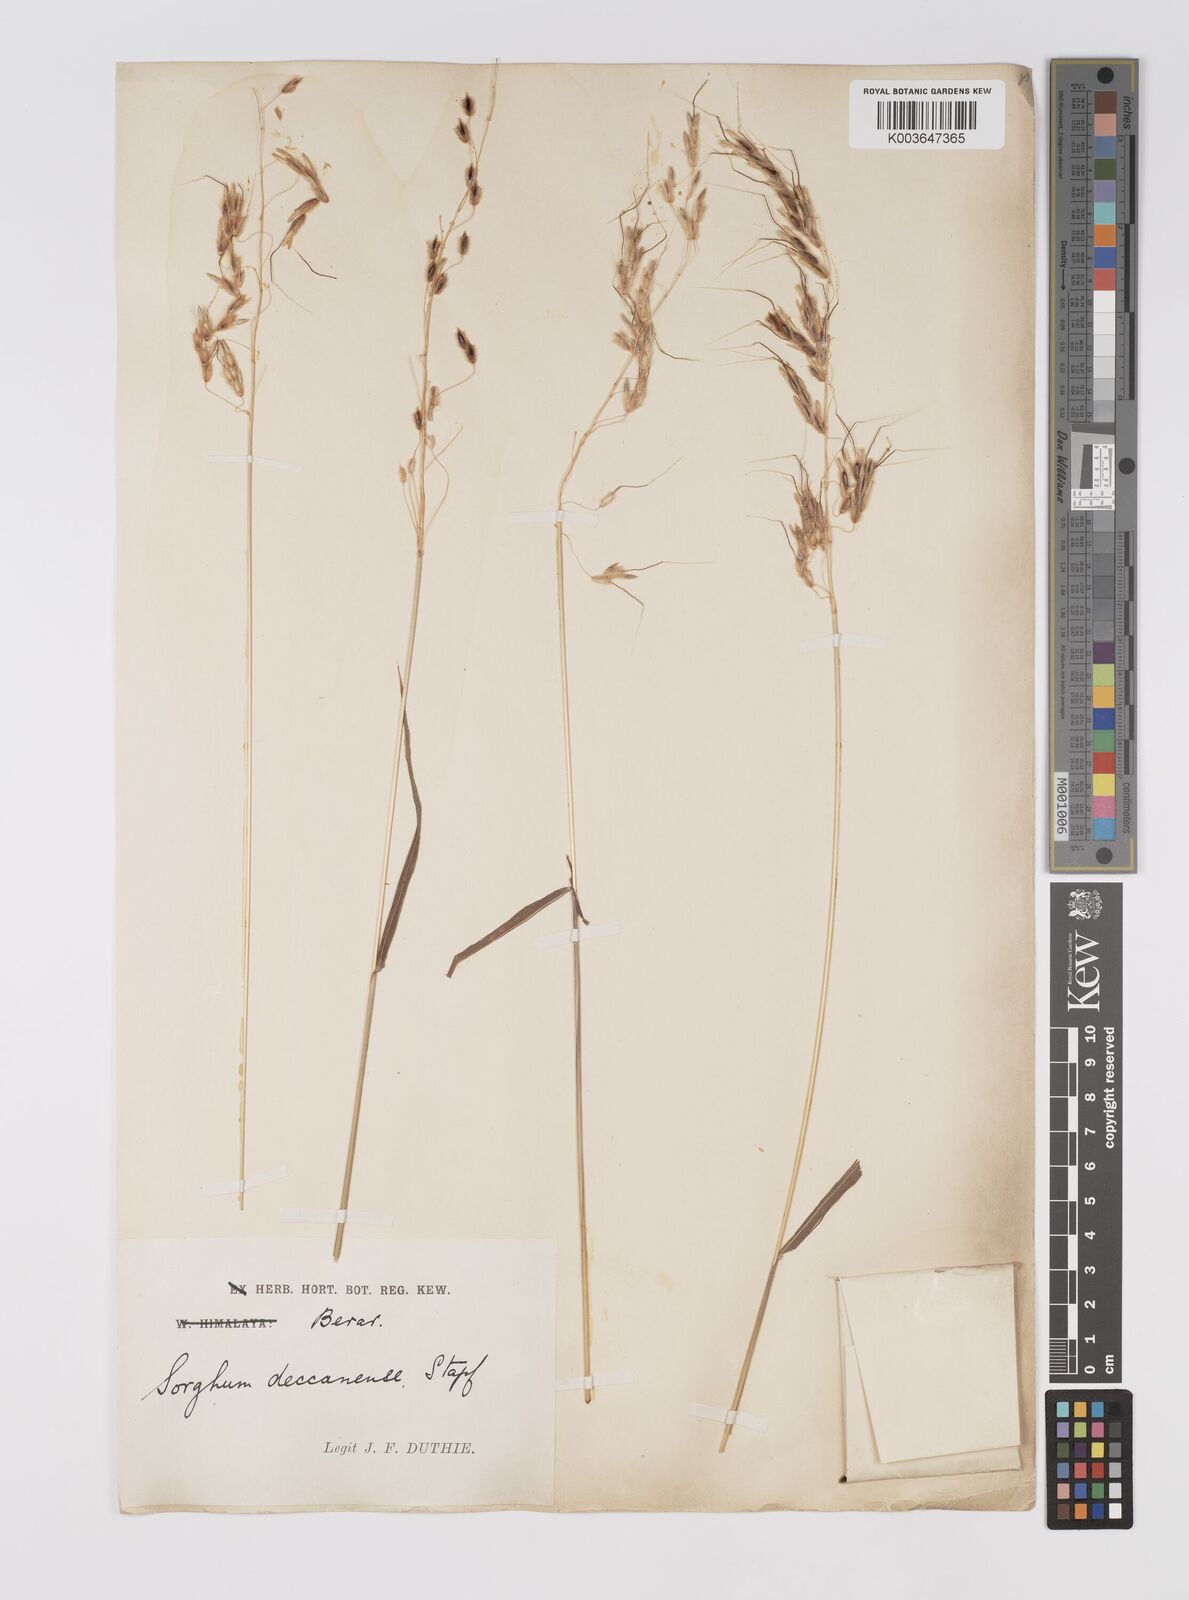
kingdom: Plantae
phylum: Tracheophyta
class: Liliopsida
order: Poales
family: Poaceae
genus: Sarga
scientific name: Sarga purpureosericea
